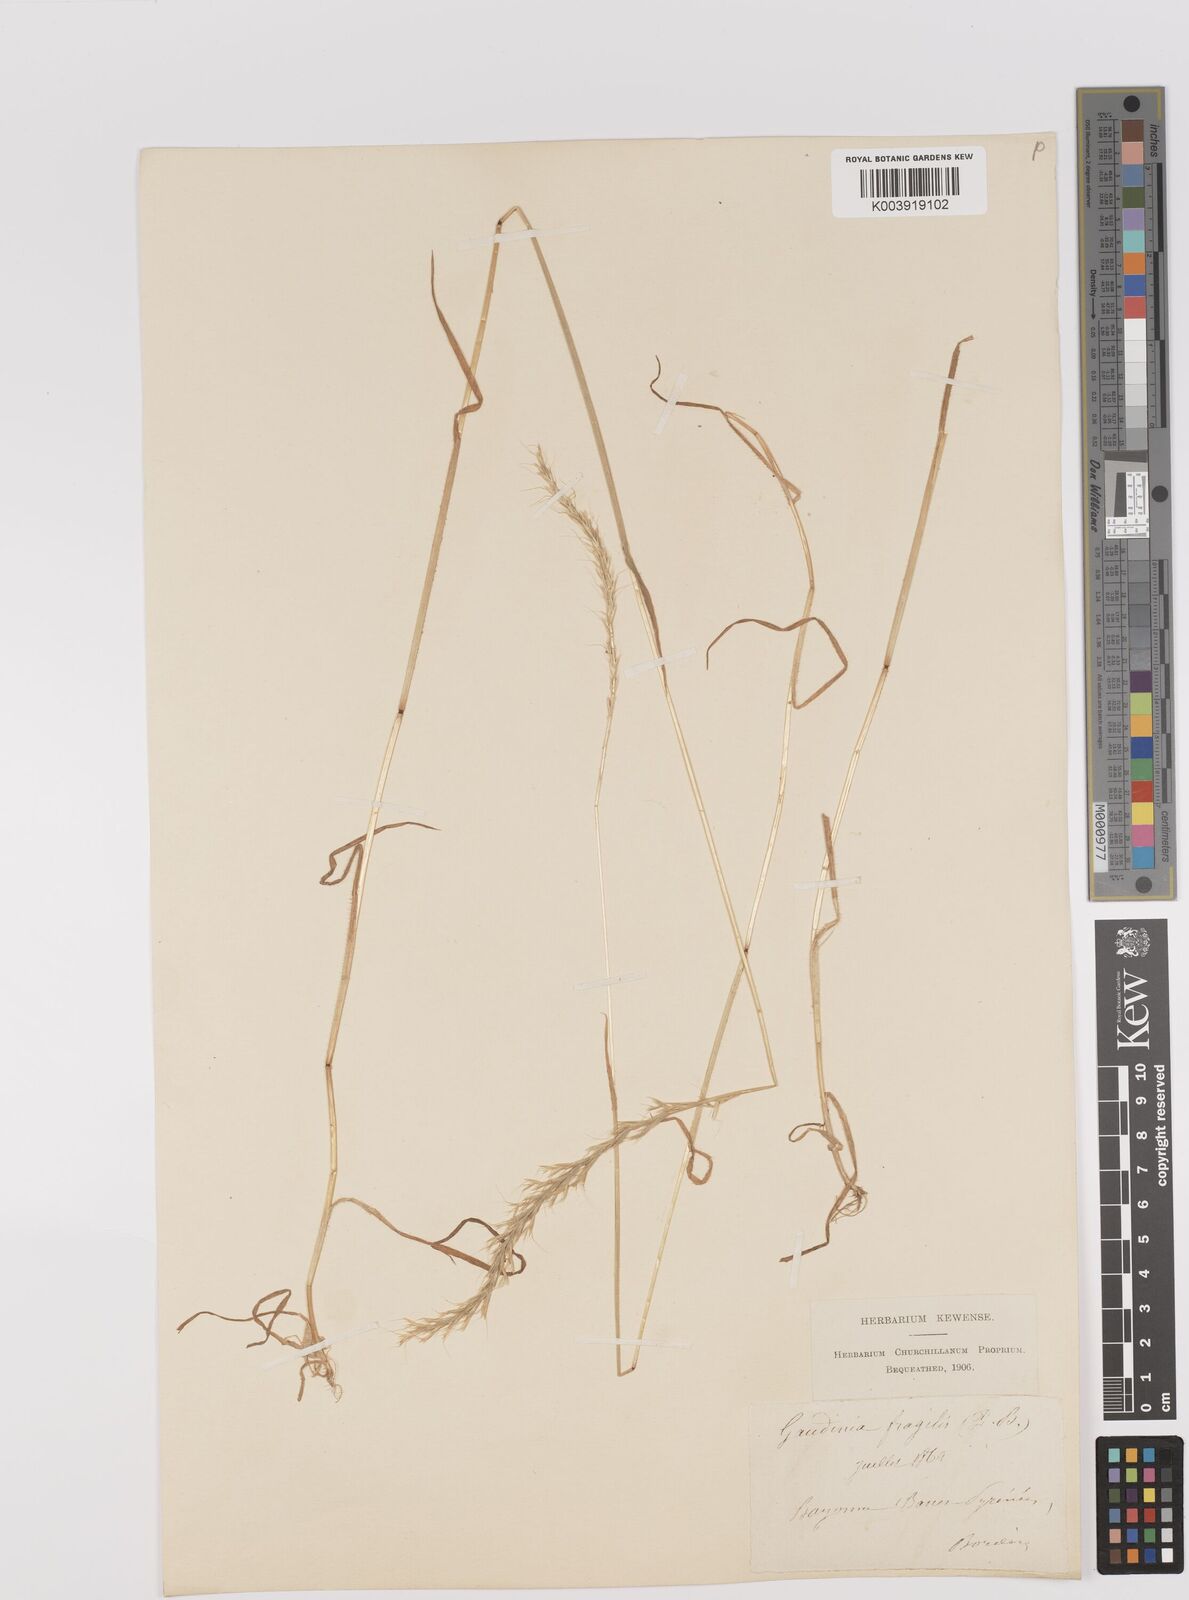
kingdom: Plantae
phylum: Tracheophyta
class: Liliopsida
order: Poales
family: Poaceae
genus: Gaudinia
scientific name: Gaudinia fragilis
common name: French oat-grass
